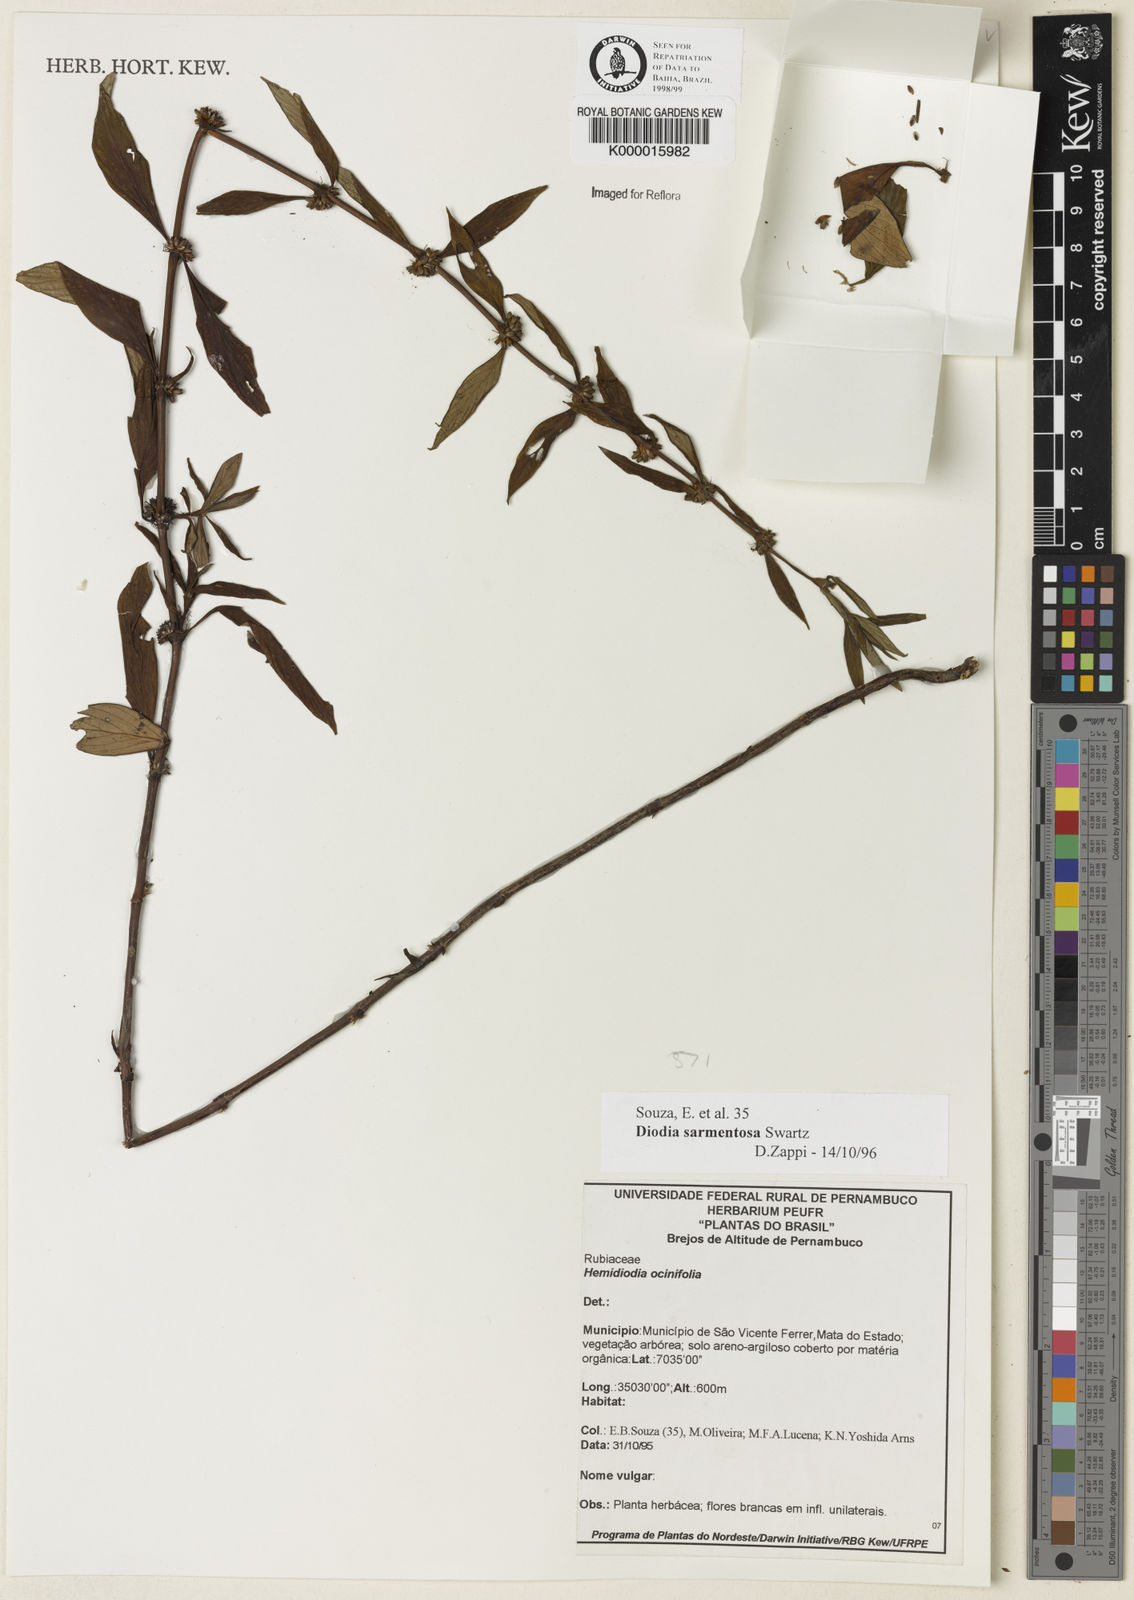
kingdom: Plantae
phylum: Tracheophyta
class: Magnoliopsida
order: Gentianales
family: Rubiaceae
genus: Hexasepalum
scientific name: Hexasepalum sarmentosum
